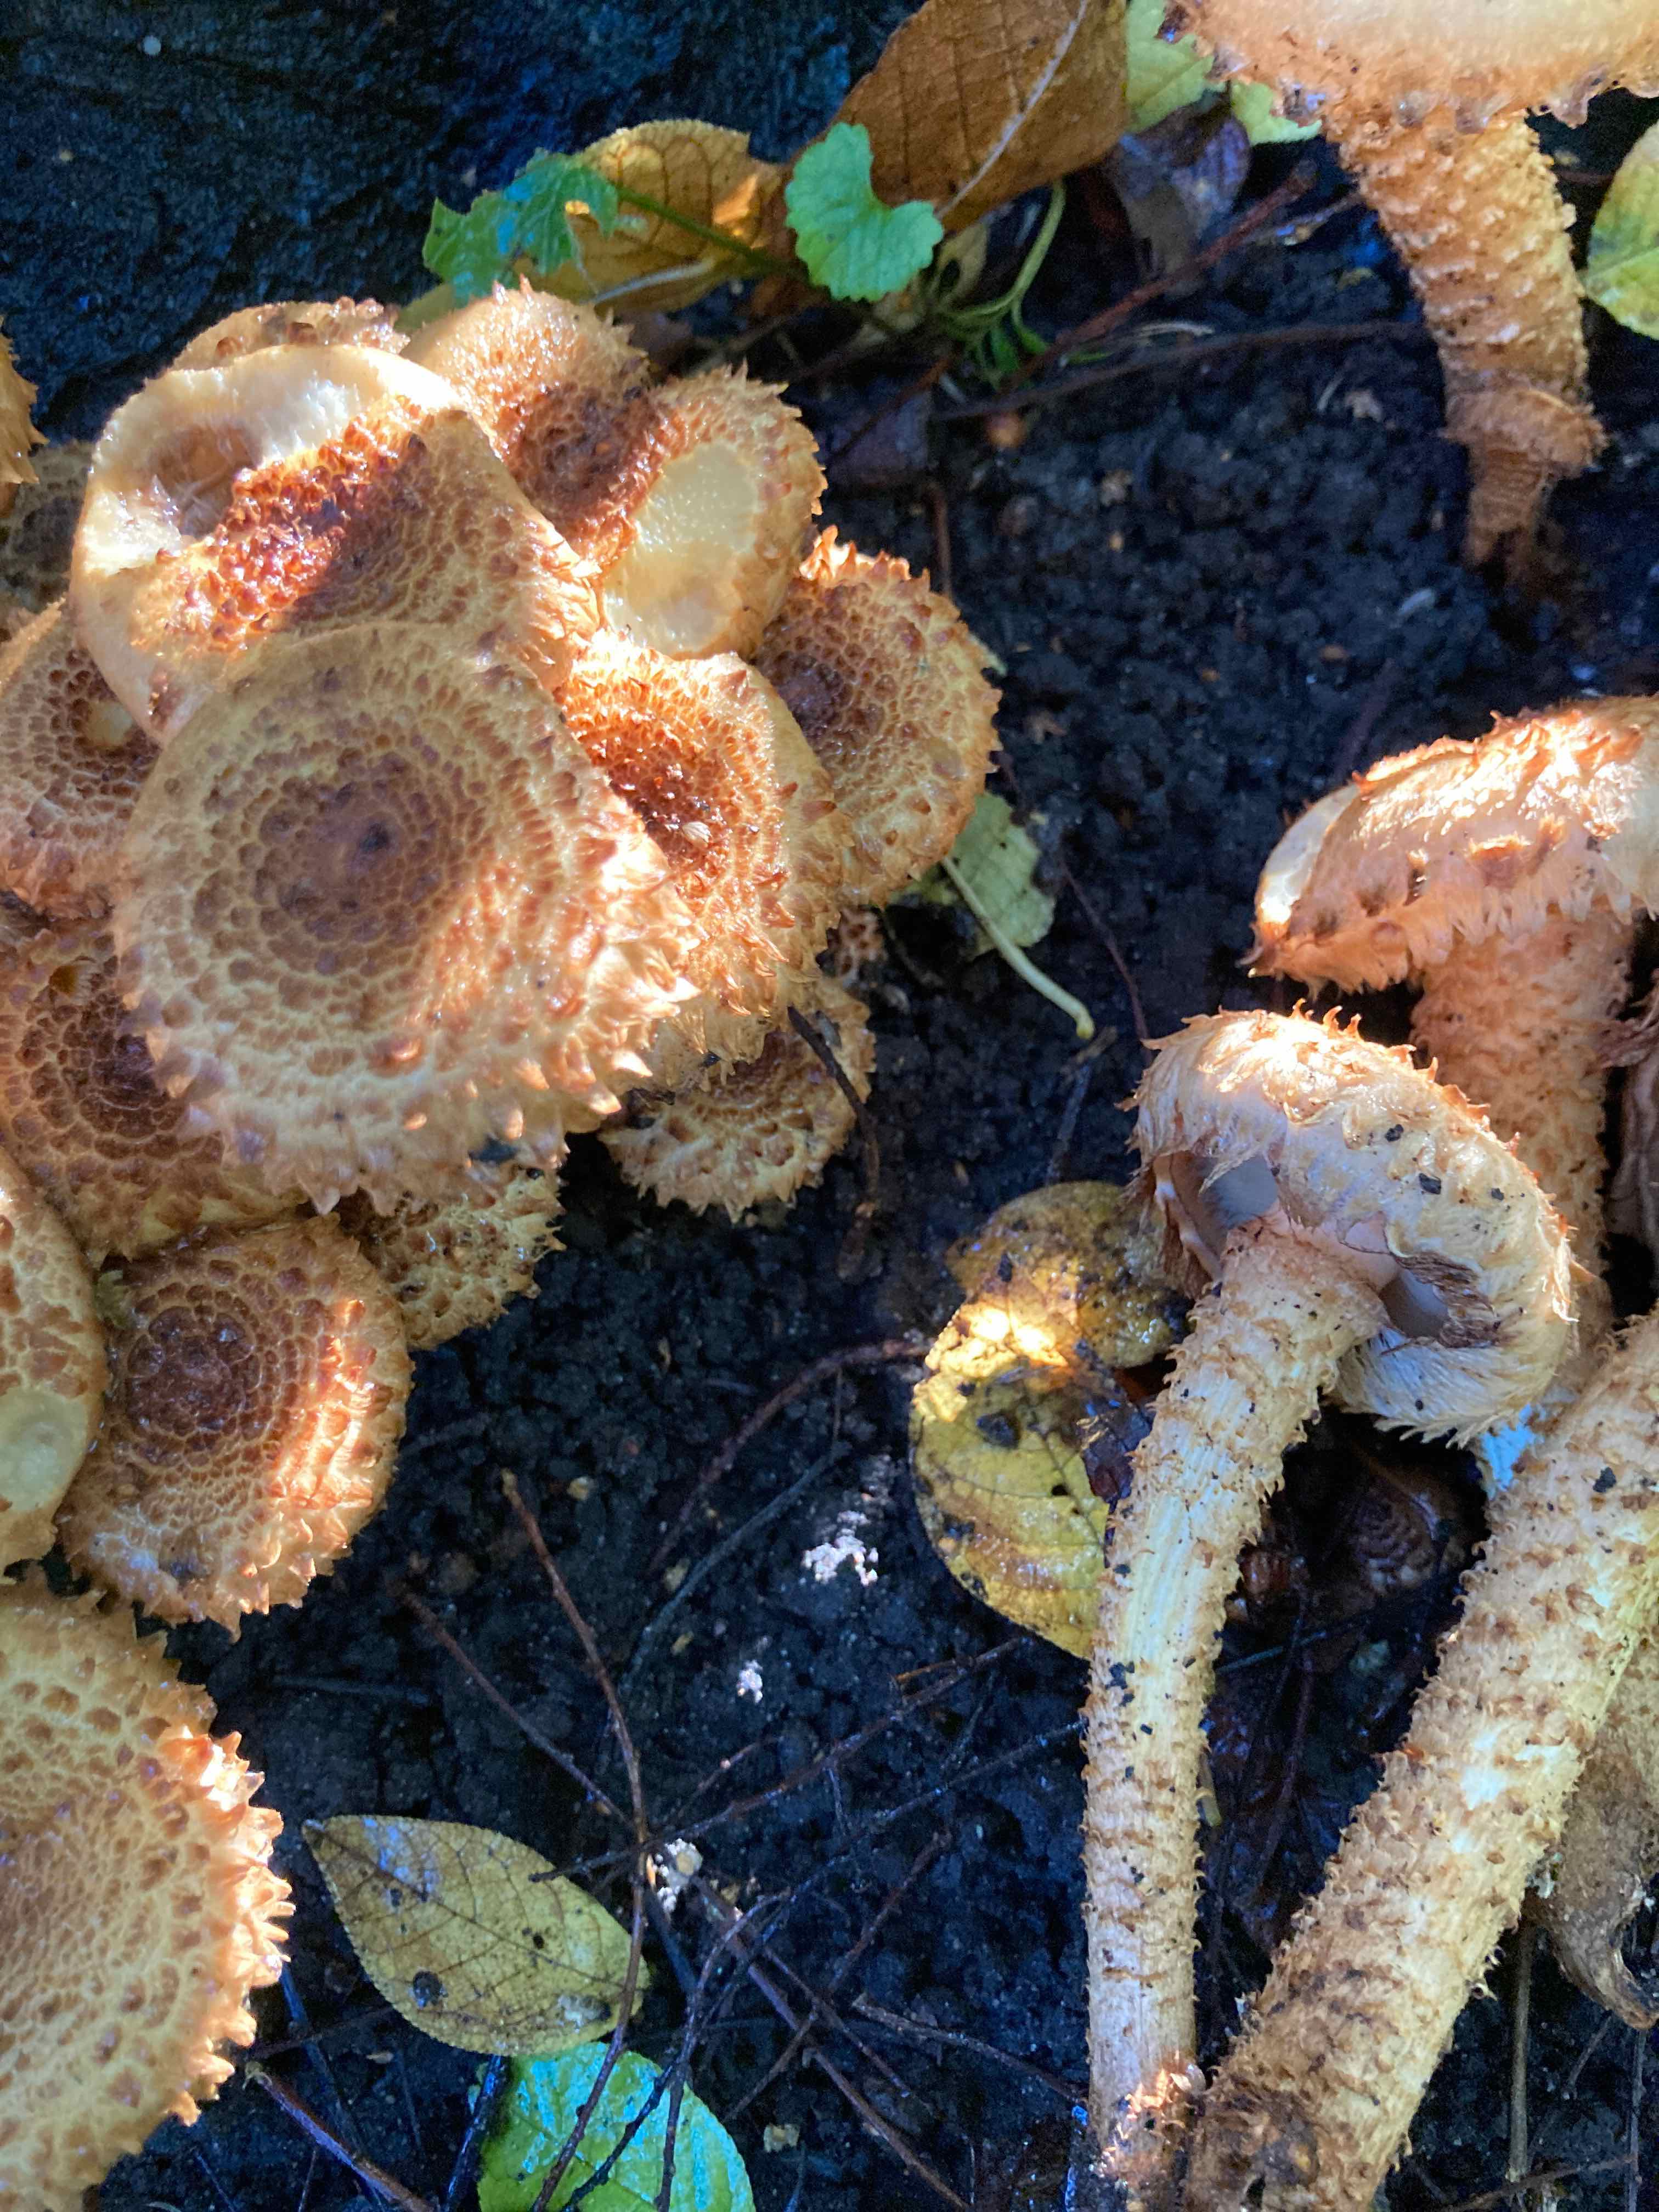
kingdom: Fungi
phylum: Basidiomycota
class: Agaricomycetes
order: Agaricales
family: Strophariaceae
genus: Pholiota
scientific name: Pholiota squarrosa
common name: krumskællet skælhat
